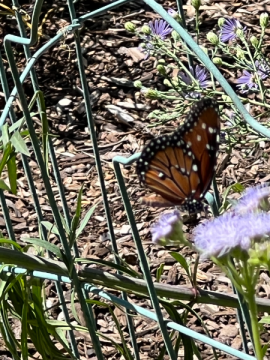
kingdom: Animalia
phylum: Arthropoda
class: Insecta
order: Lepidoptera
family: Nymphalidae
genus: Danaus
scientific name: Danaus gilippus
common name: Queen
